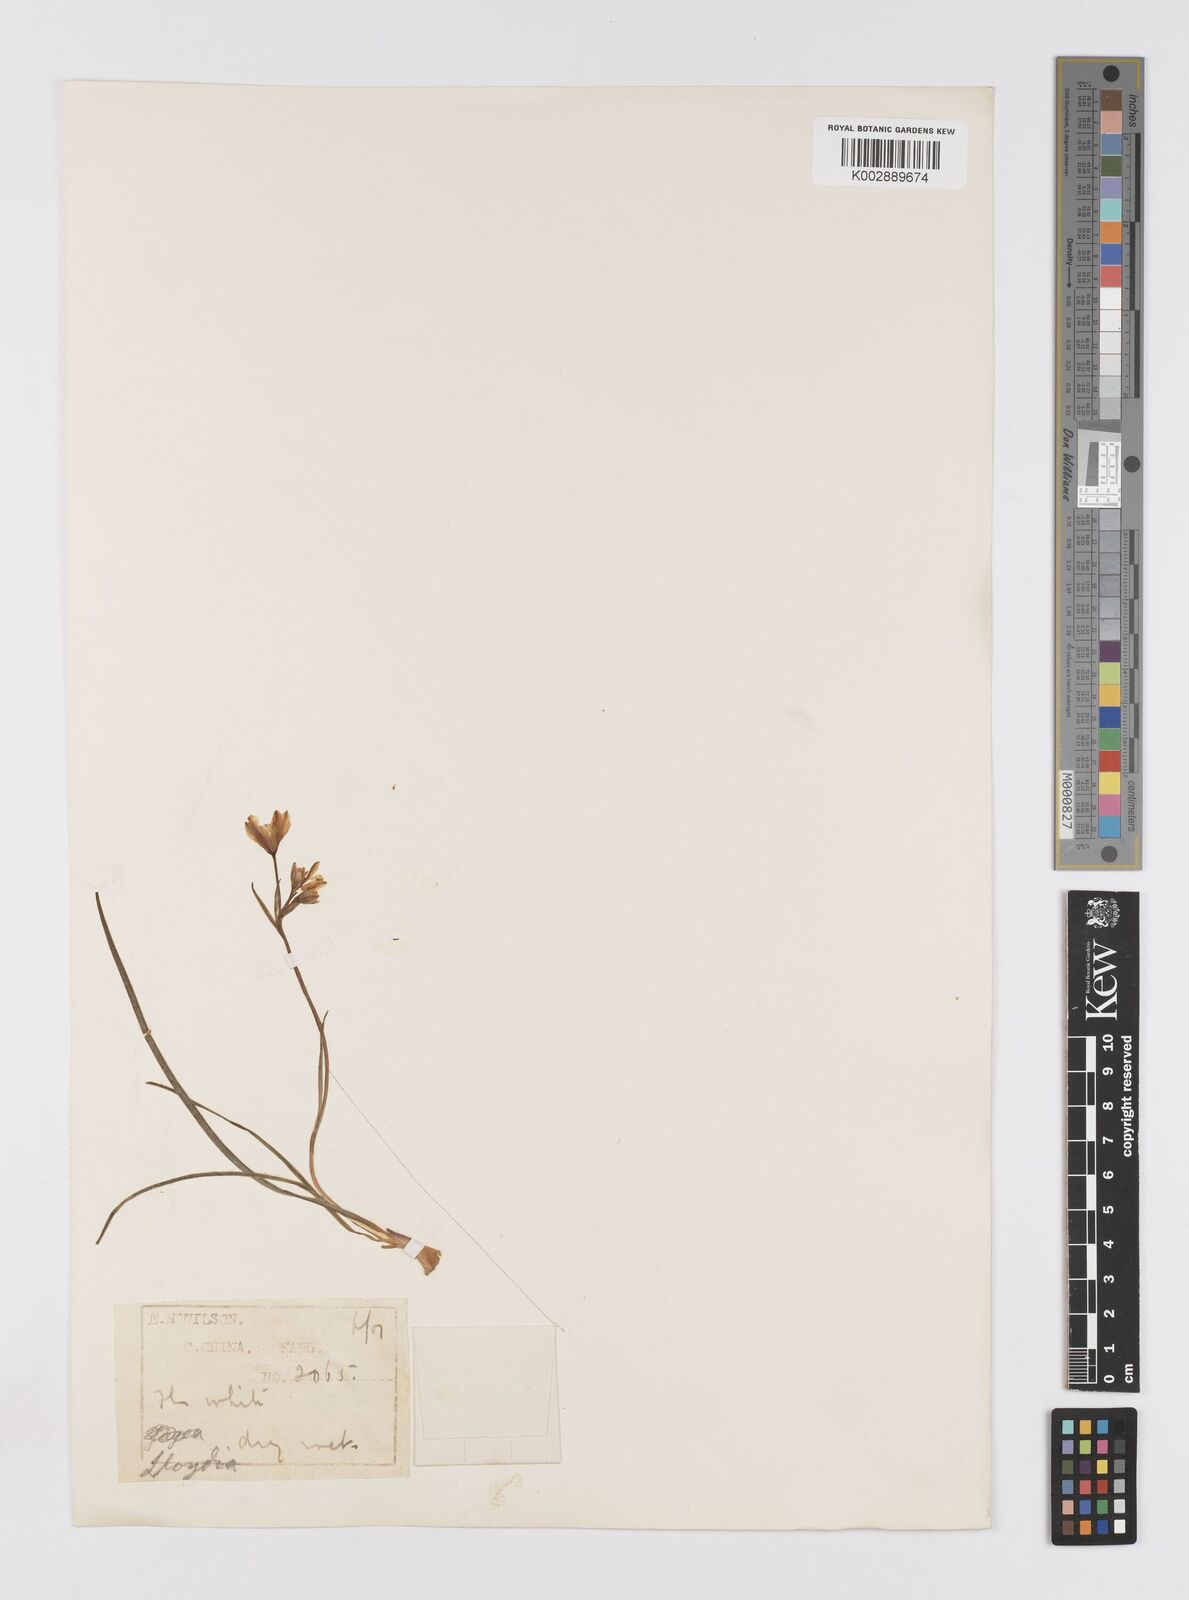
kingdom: Plantae
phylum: Tracheophyta
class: Liliopsida
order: Liliales
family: Liliaceae
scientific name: Liliaceae
